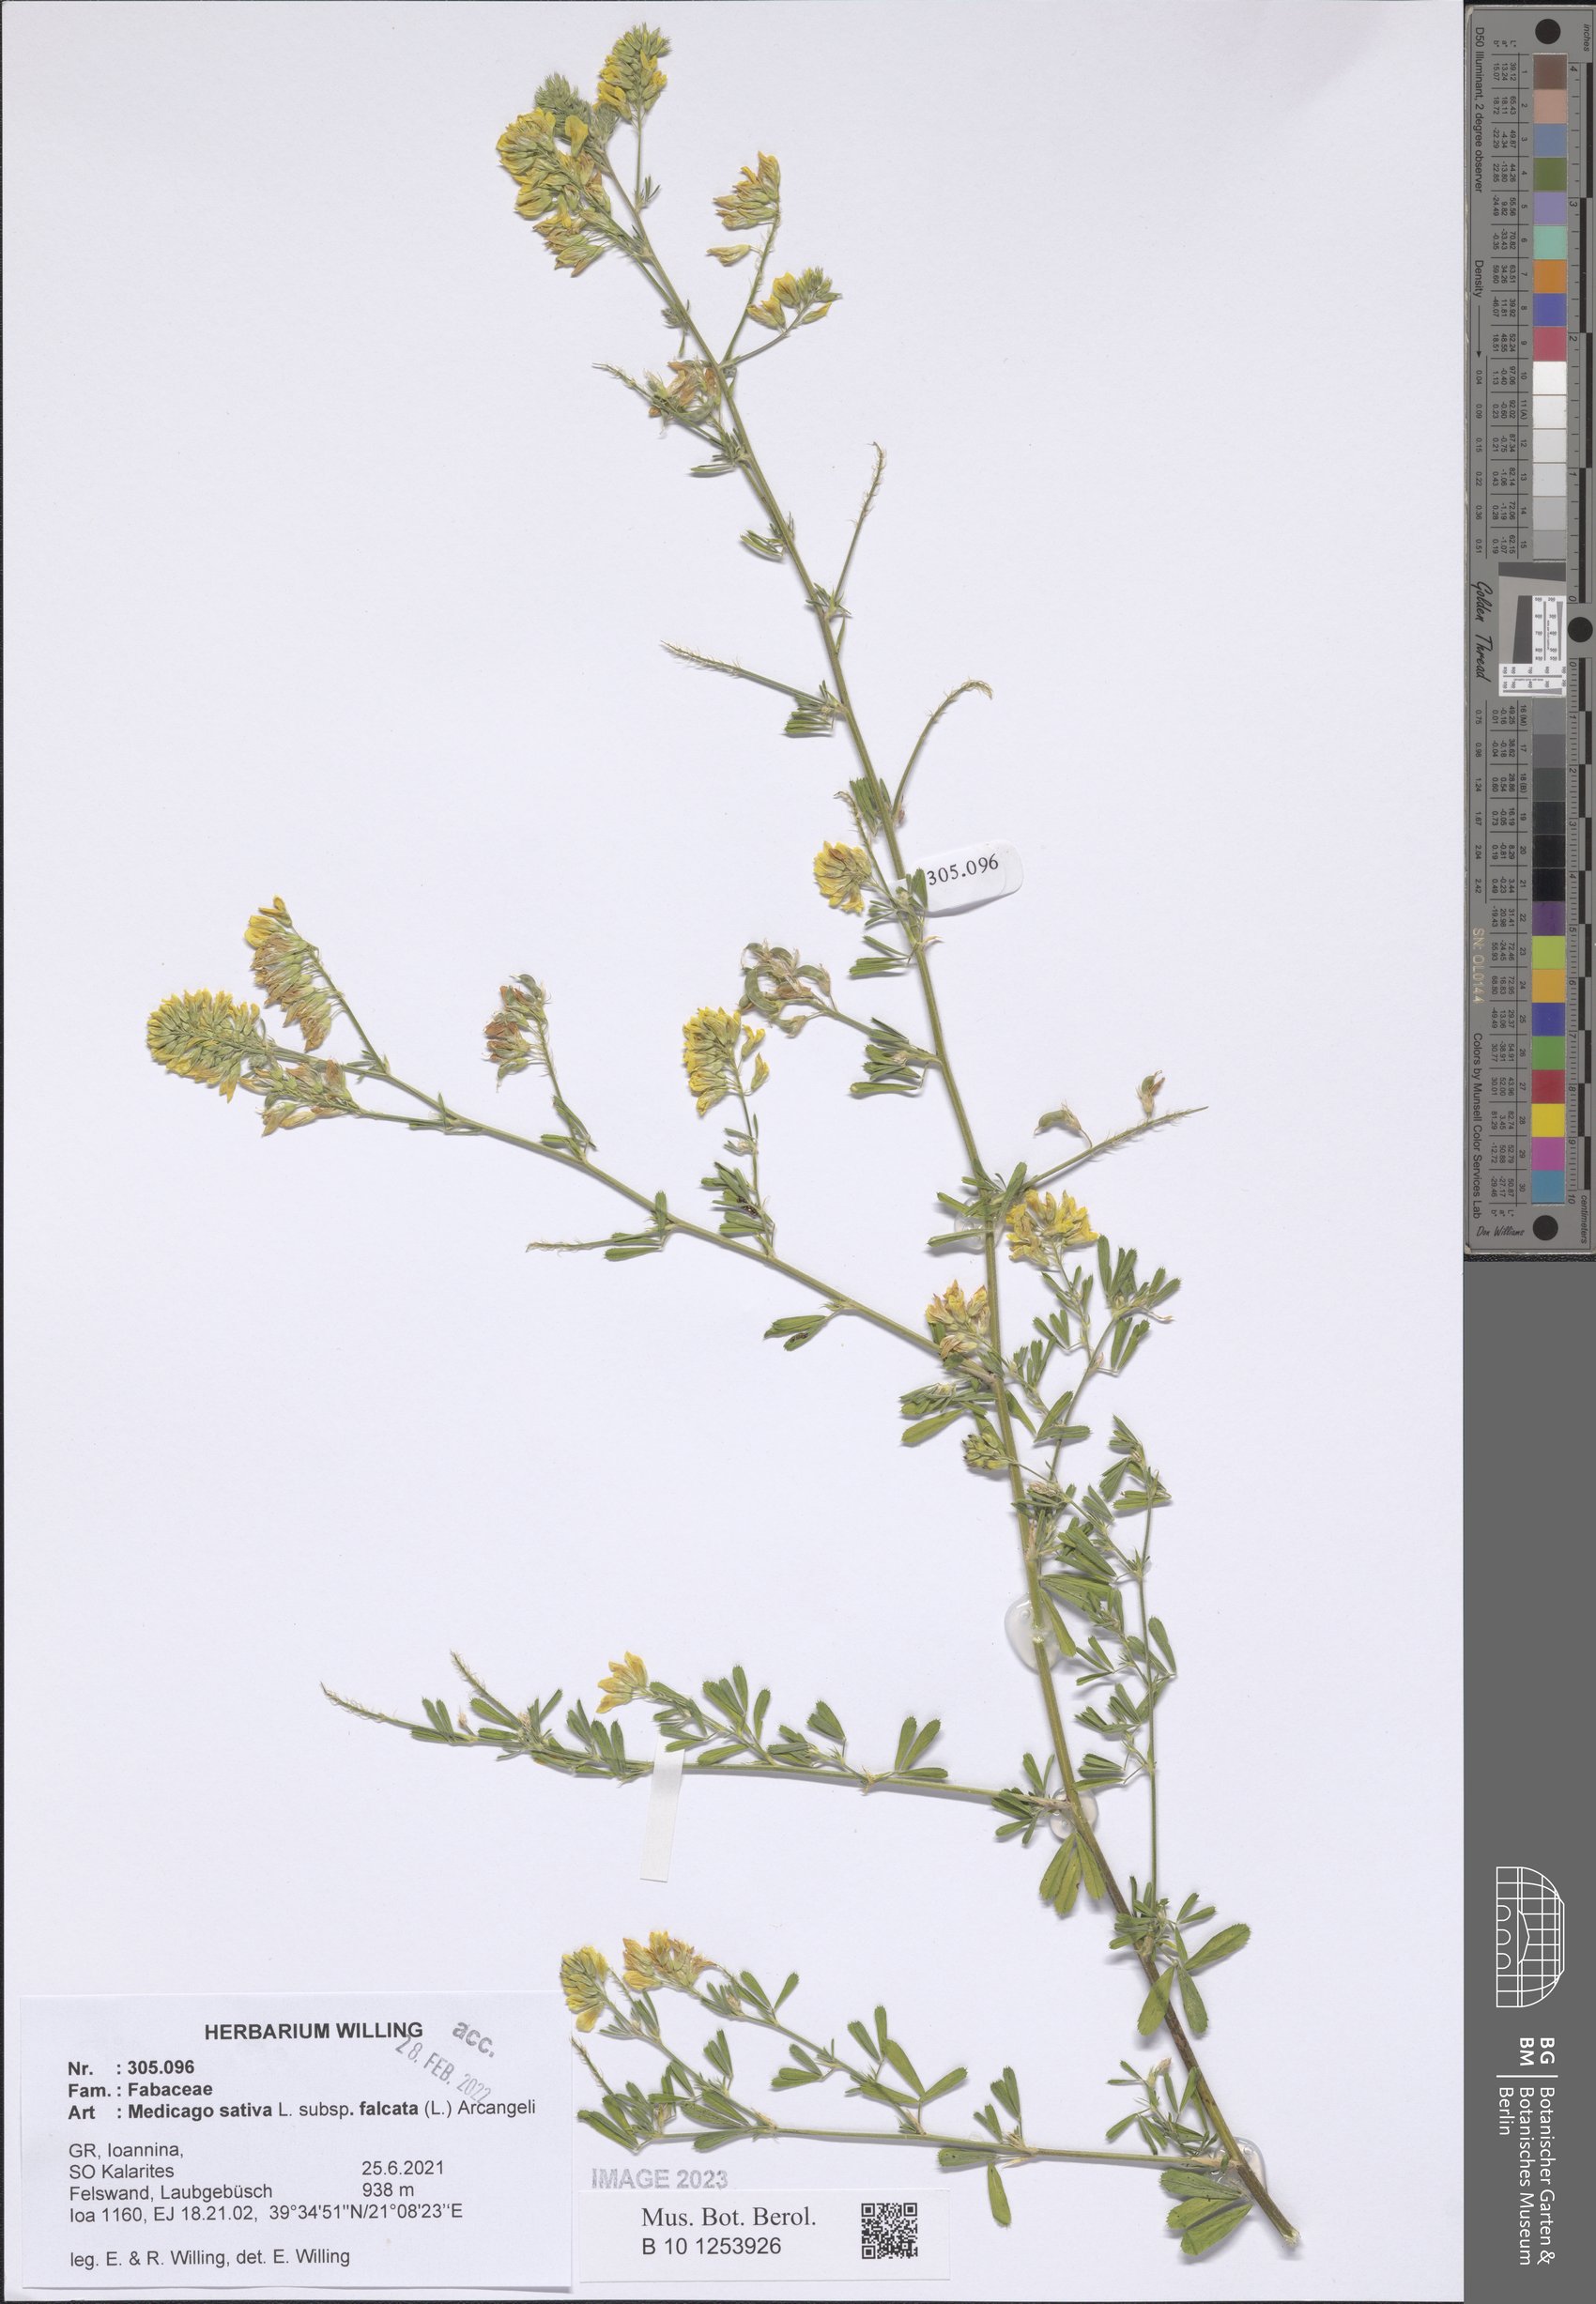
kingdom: Plantae
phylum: Tracheophyta
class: Magnoliopsida
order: Fabales
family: Fabaceae
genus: Medicago
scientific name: Medicago falcata
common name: Sickle medick
